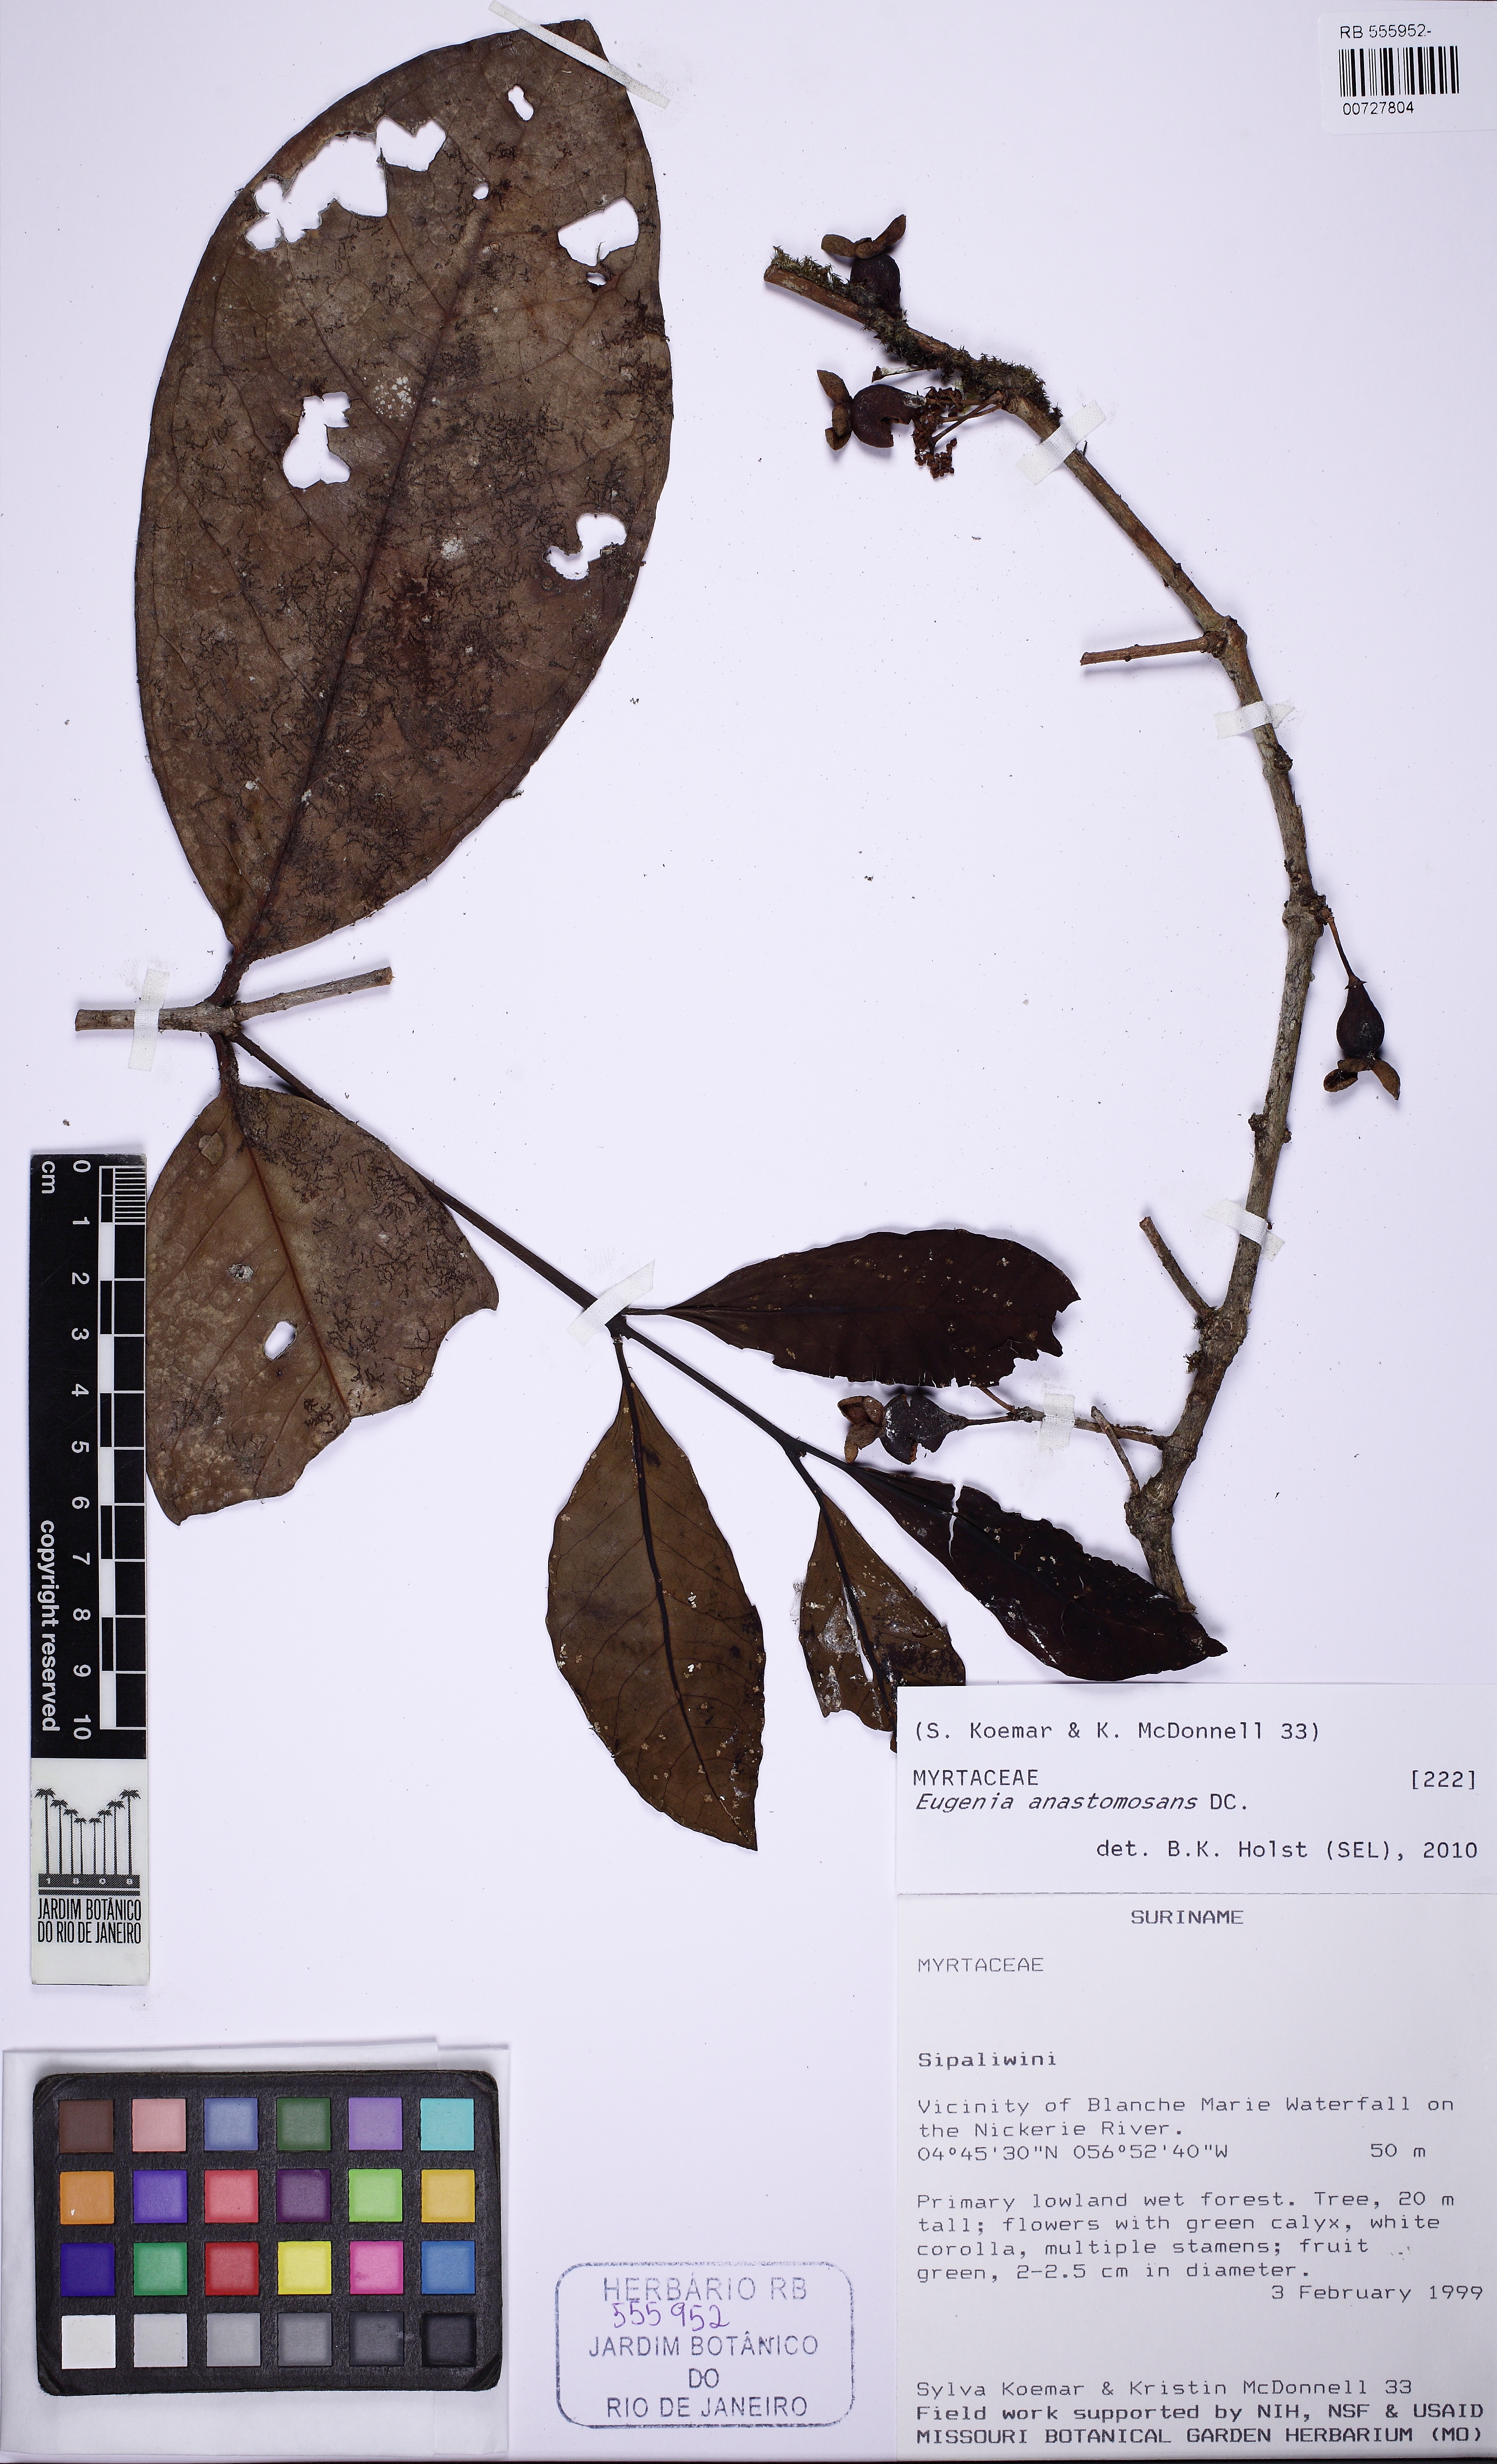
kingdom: Plantae
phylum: Tracheophyta
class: Magnoliopsida
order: Myrtales
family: Myrtaceae
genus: Eugenia
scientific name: Eugenia anastomosans
